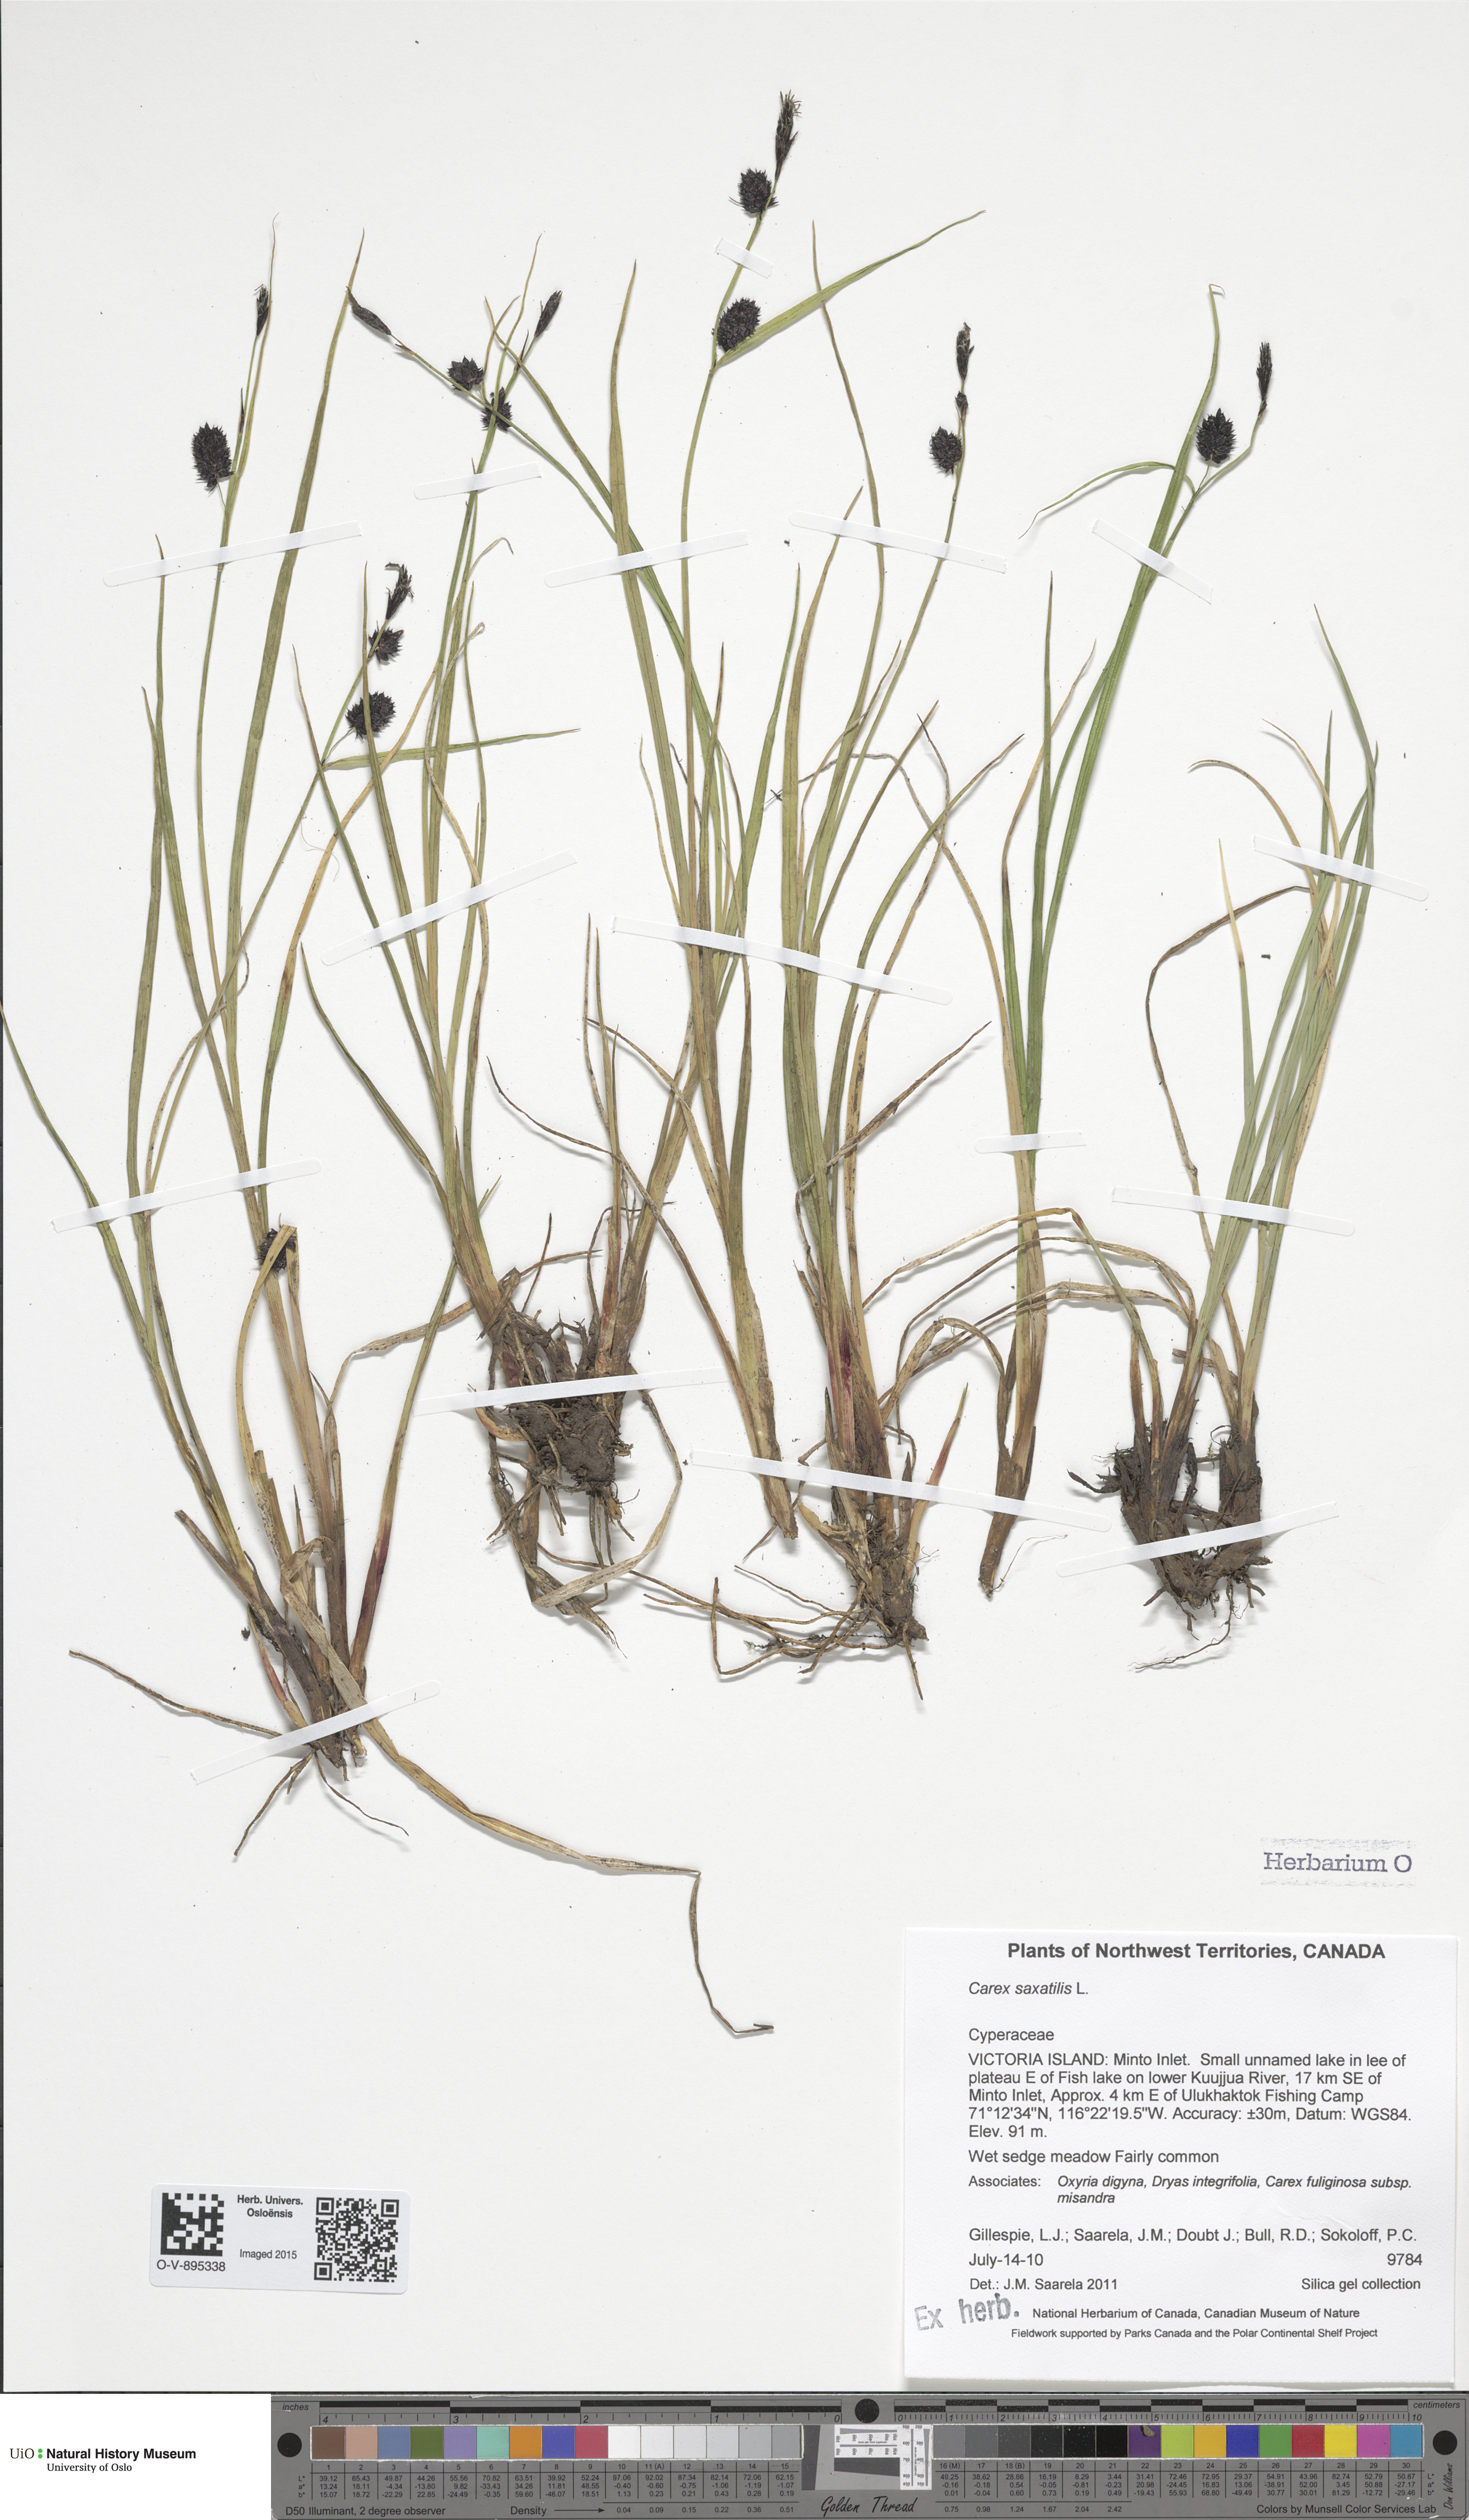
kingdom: Plantae
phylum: Tracheophyta
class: Liliopsida
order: Poales
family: Cyperaceae
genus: Carex
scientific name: Carex saxatilis
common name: Russet sedge
